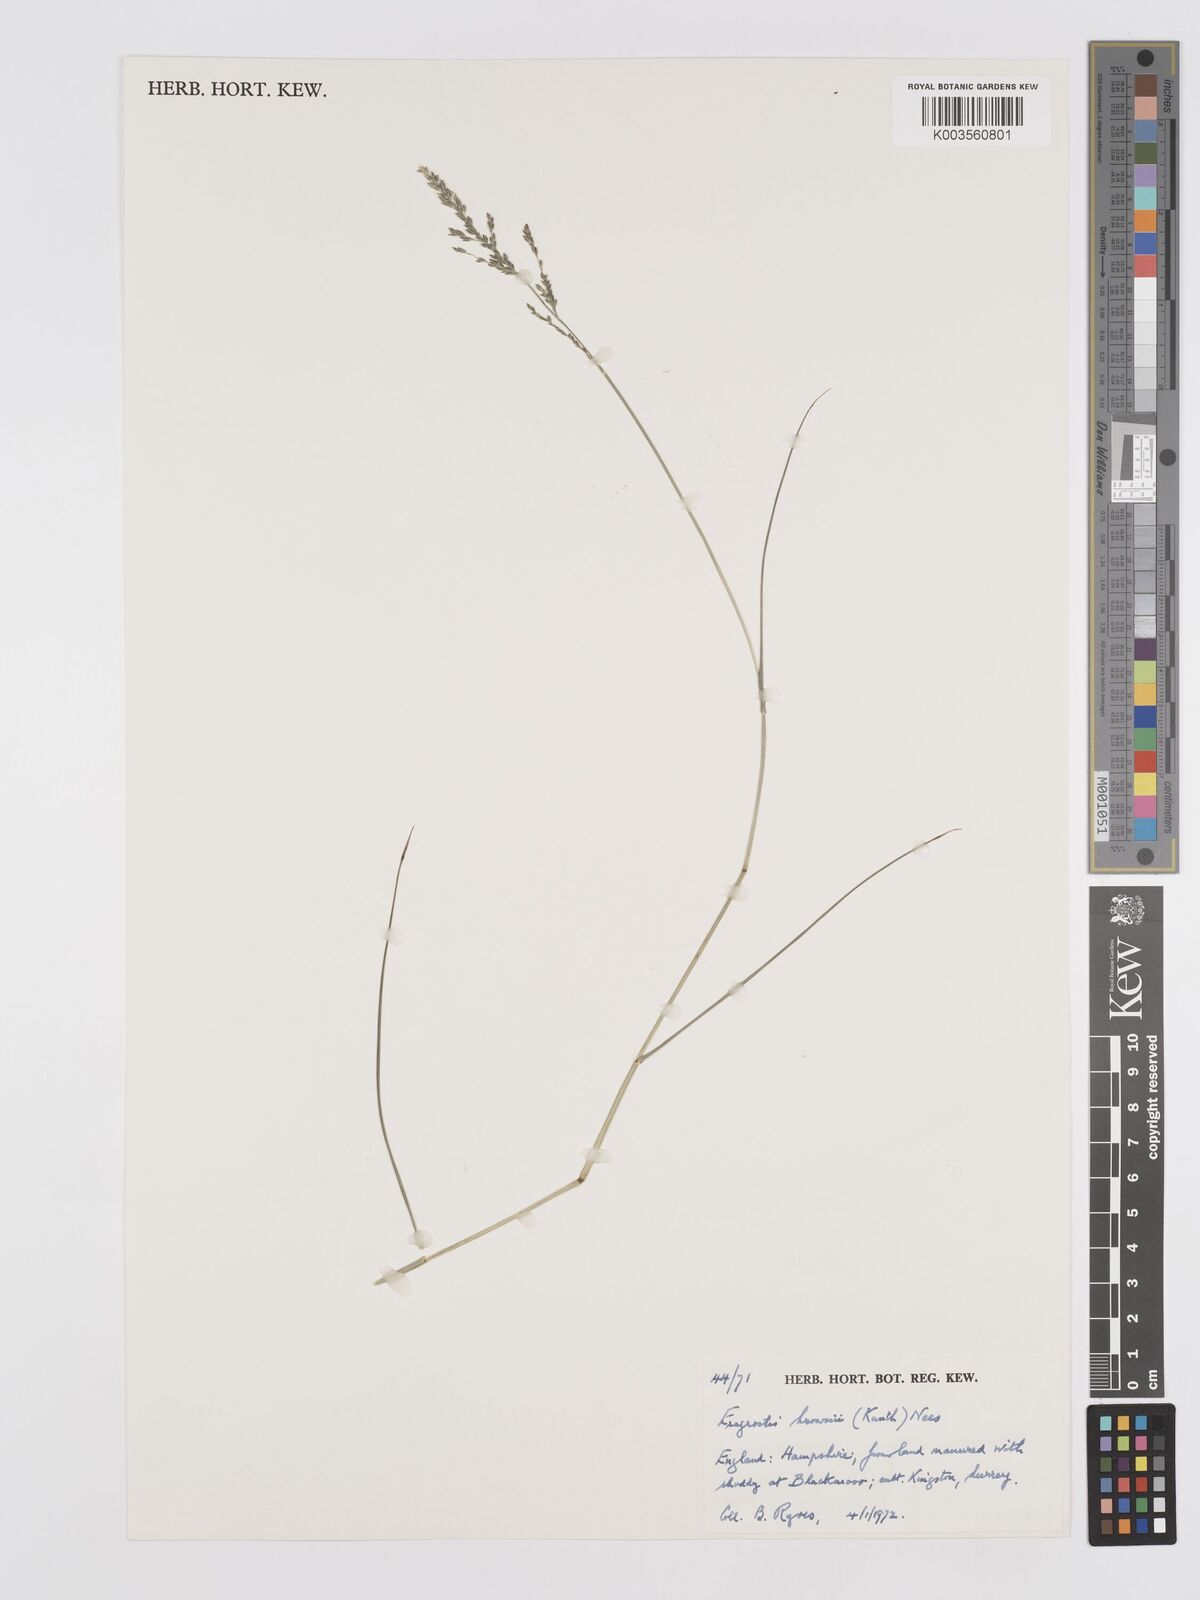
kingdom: Plantae
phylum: Tracheophyta
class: Liliopsida
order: Poales
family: Poaceae
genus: Eragrostis
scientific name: Eragrostis brownii
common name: Lovegrass
